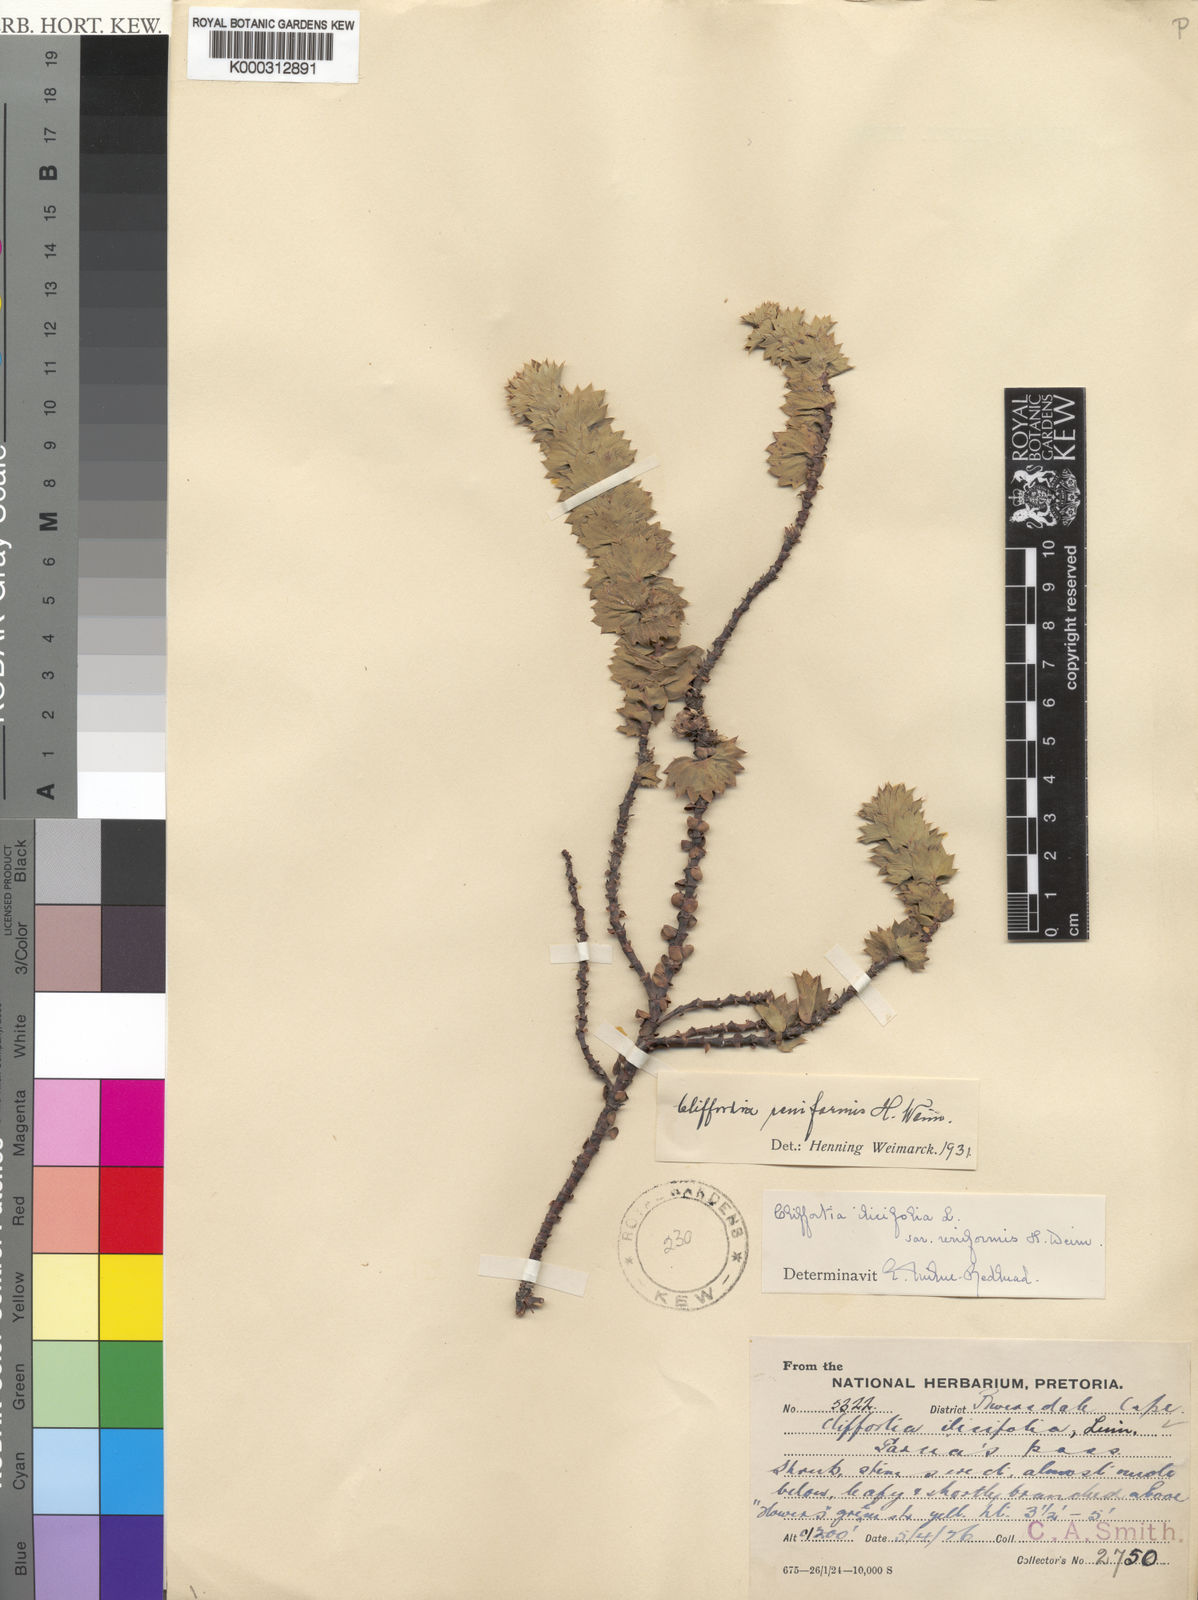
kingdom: Plantae
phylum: Tracheophyta
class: Magnoliopsida
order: Rosales
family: Rosaceae
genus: Cliffortia
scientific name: Cliffortia
